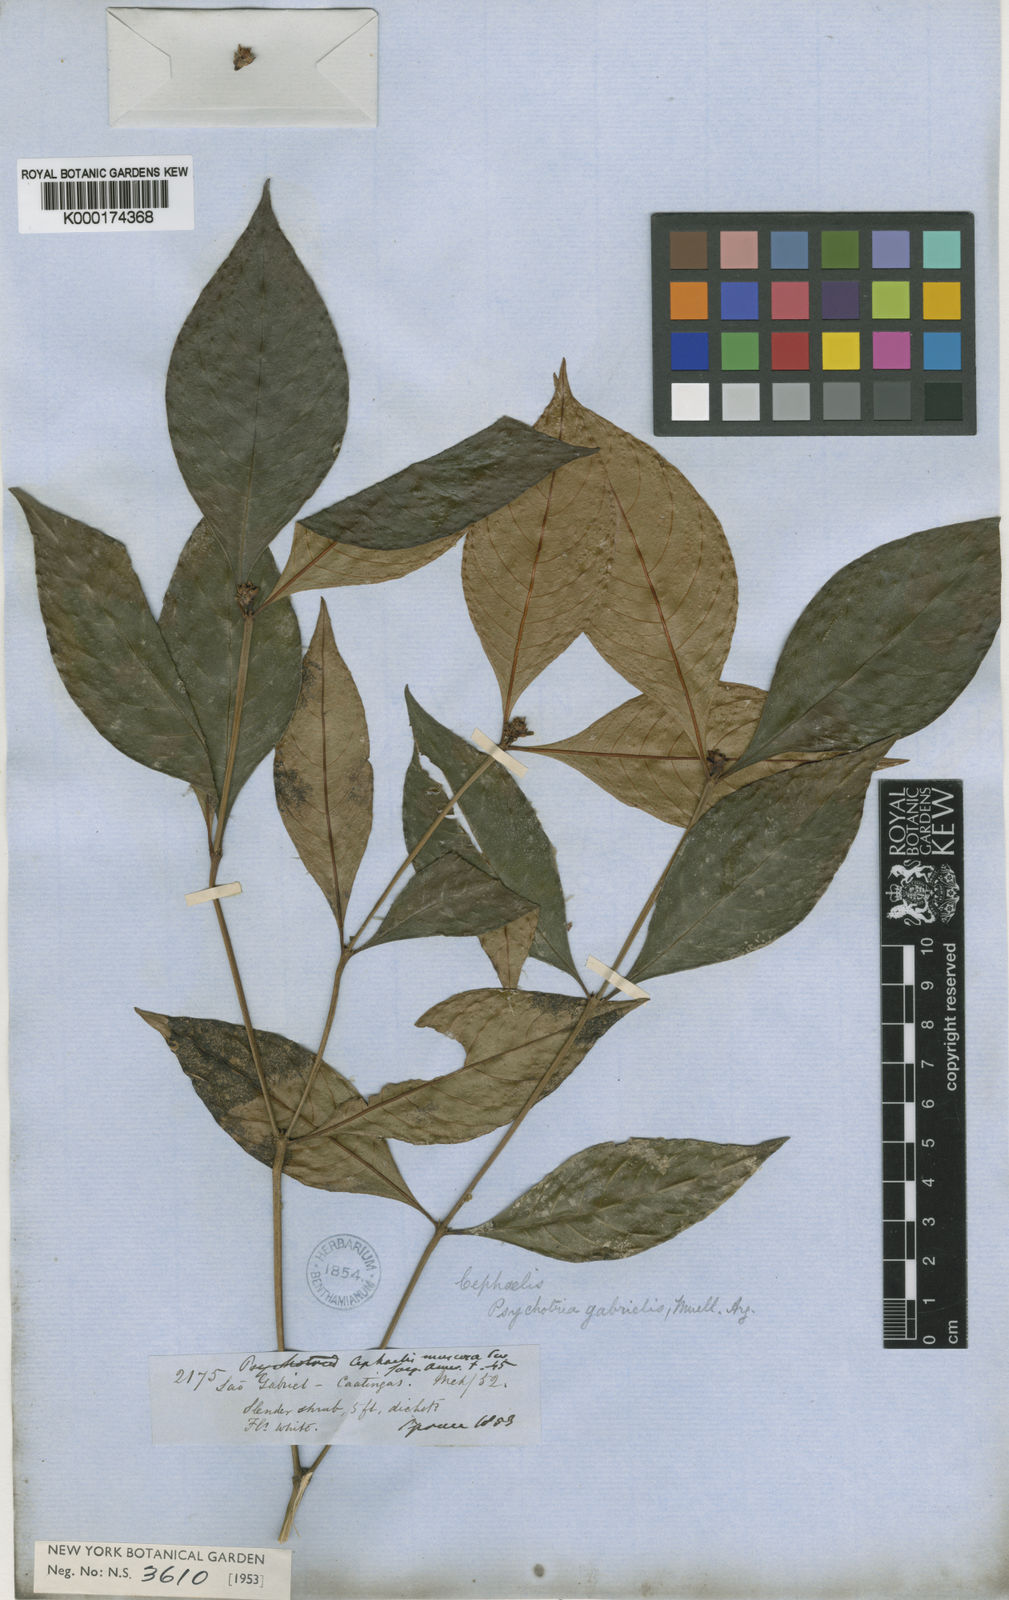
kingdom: Plantae
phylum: Tracheophyta
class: Magnoliopsida
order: Gentianales
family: Rubiaceae
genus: Psychotria
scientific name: Psychotria
